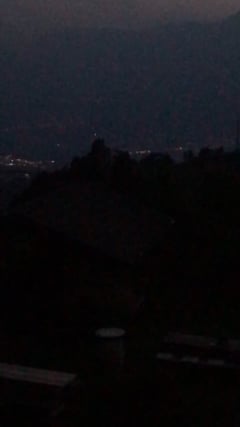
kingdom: Animalia
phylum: Chordata
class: Aves
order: Passeriformes
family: Turdidae
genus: Turdus
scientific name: Turdus philomelos
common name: Song thrush
